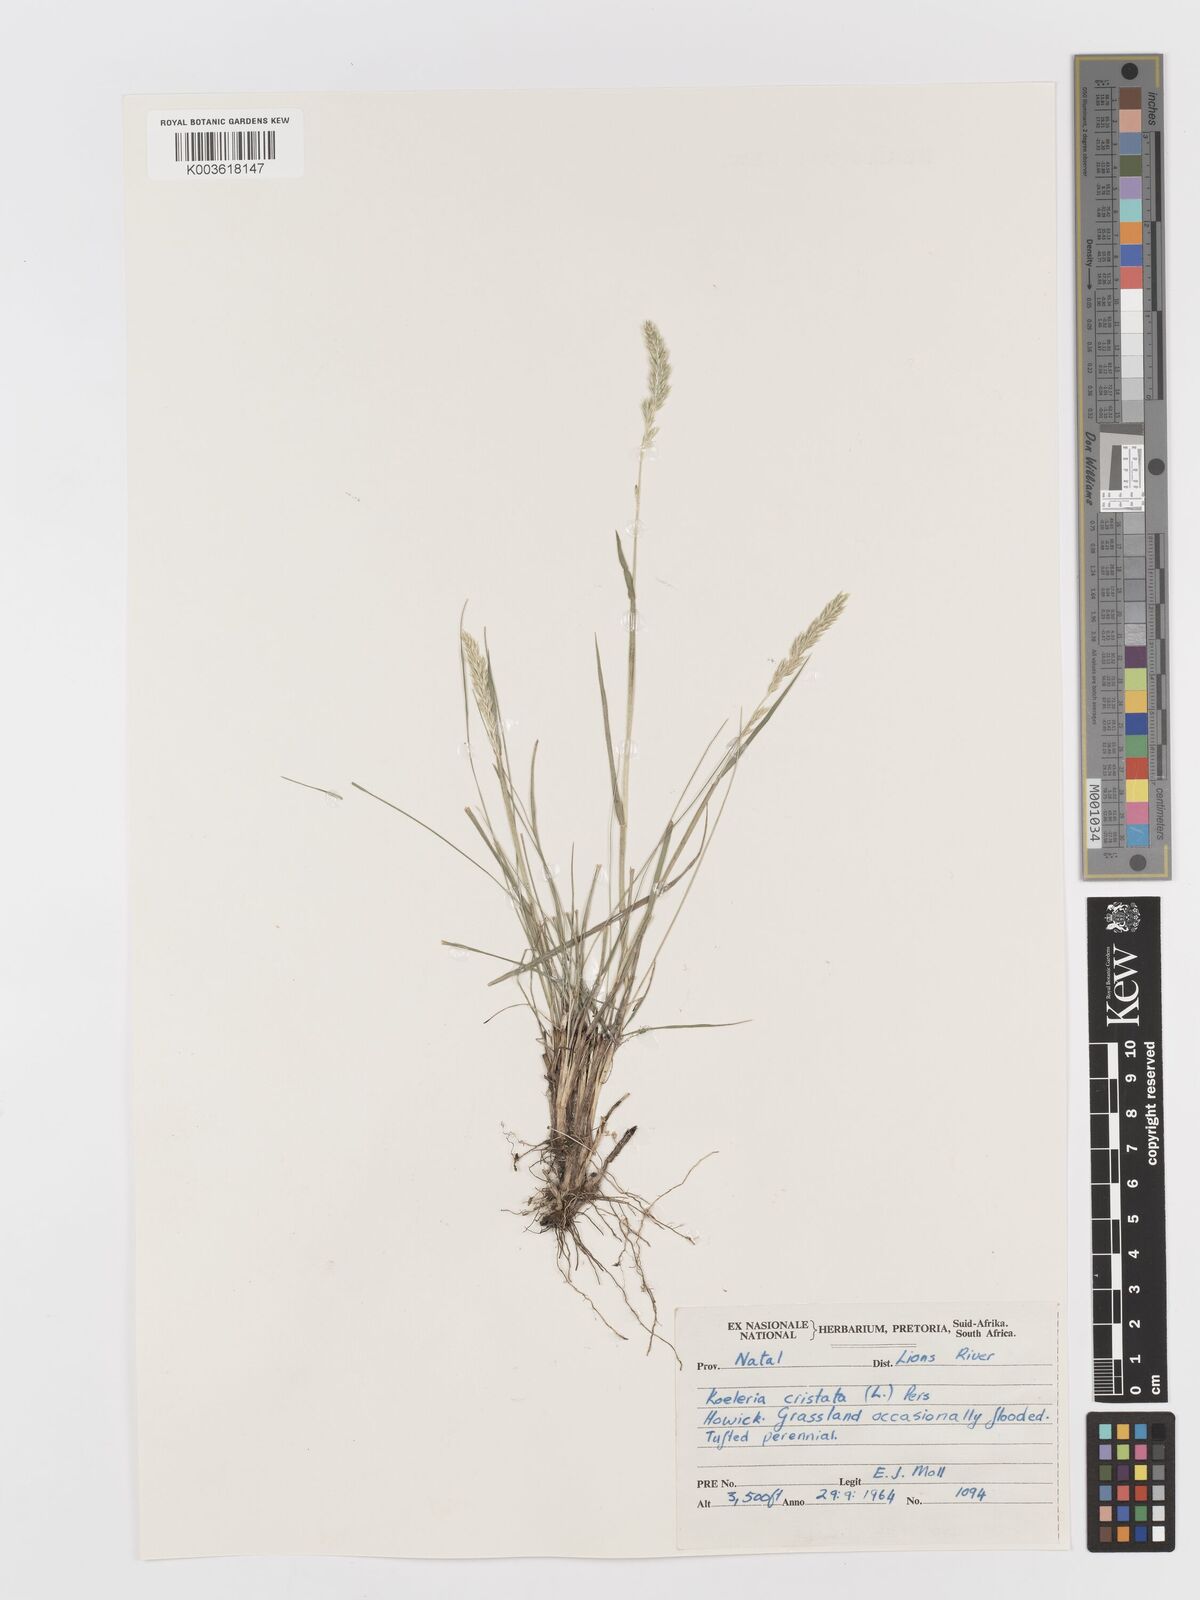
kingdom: Plantae
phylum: Tracheophyta
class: Liliopsida
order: Poales
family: Poaceae
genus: Koeleria
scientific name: Koeleria capensis
